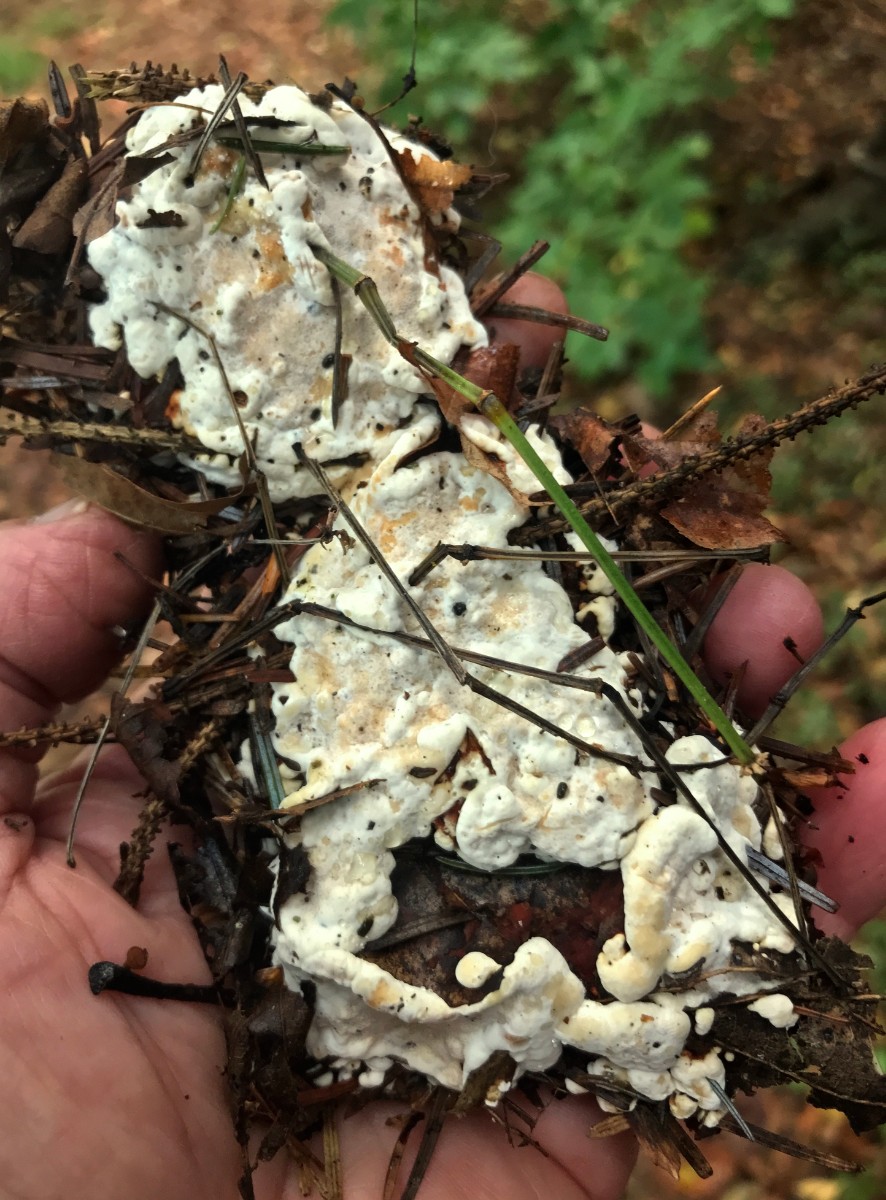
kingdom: Fungi
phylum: Basidiomycota
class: Agaricomycetes
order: Russulales
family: Bondarzewiaceae
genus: Heterobasidion
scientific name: Heterobasidion annosum
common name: almindelig rodfordærver
